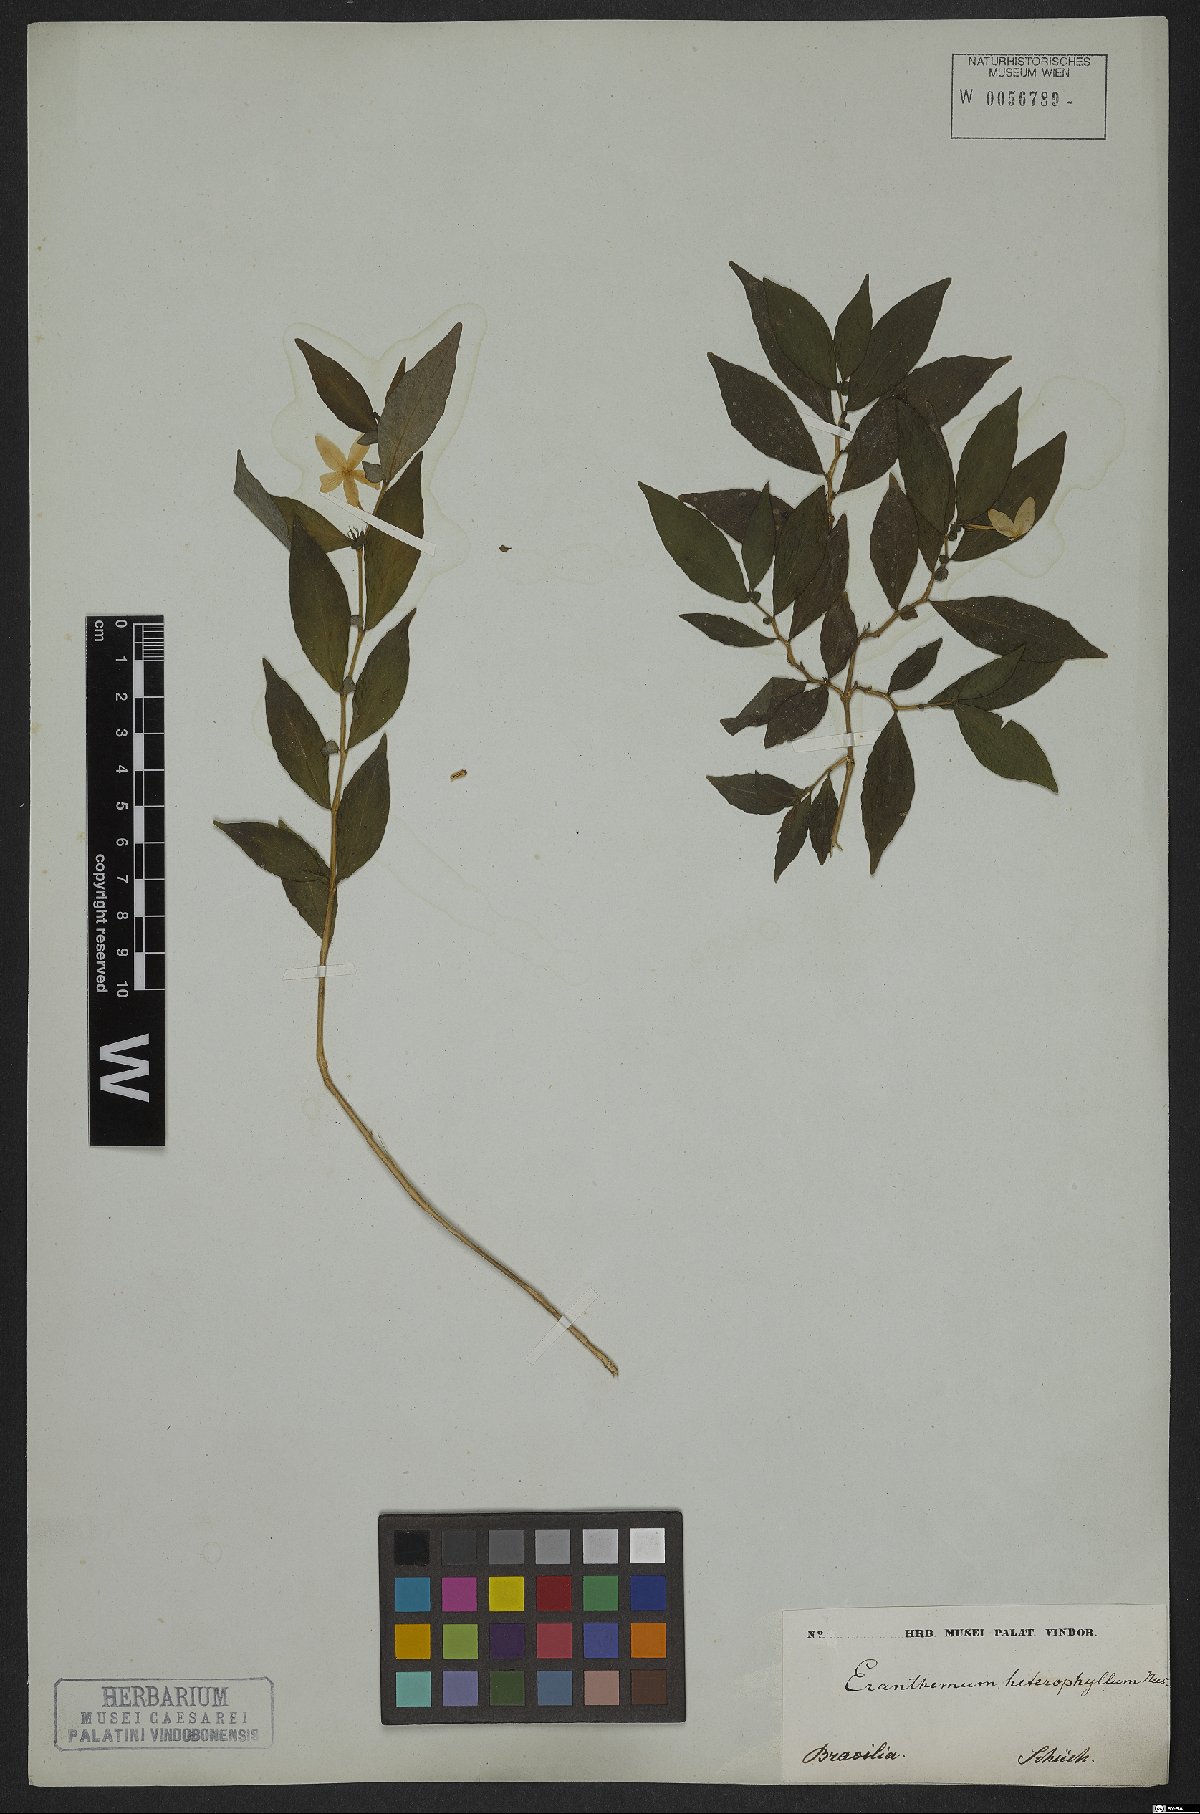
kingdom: Plantae
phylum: Tracheophyta
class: Magnoliopsida
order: Lamiales
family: Acanthaceae
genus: Pseuderanthemum
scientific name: Pseuderanthemum heterophyllum
